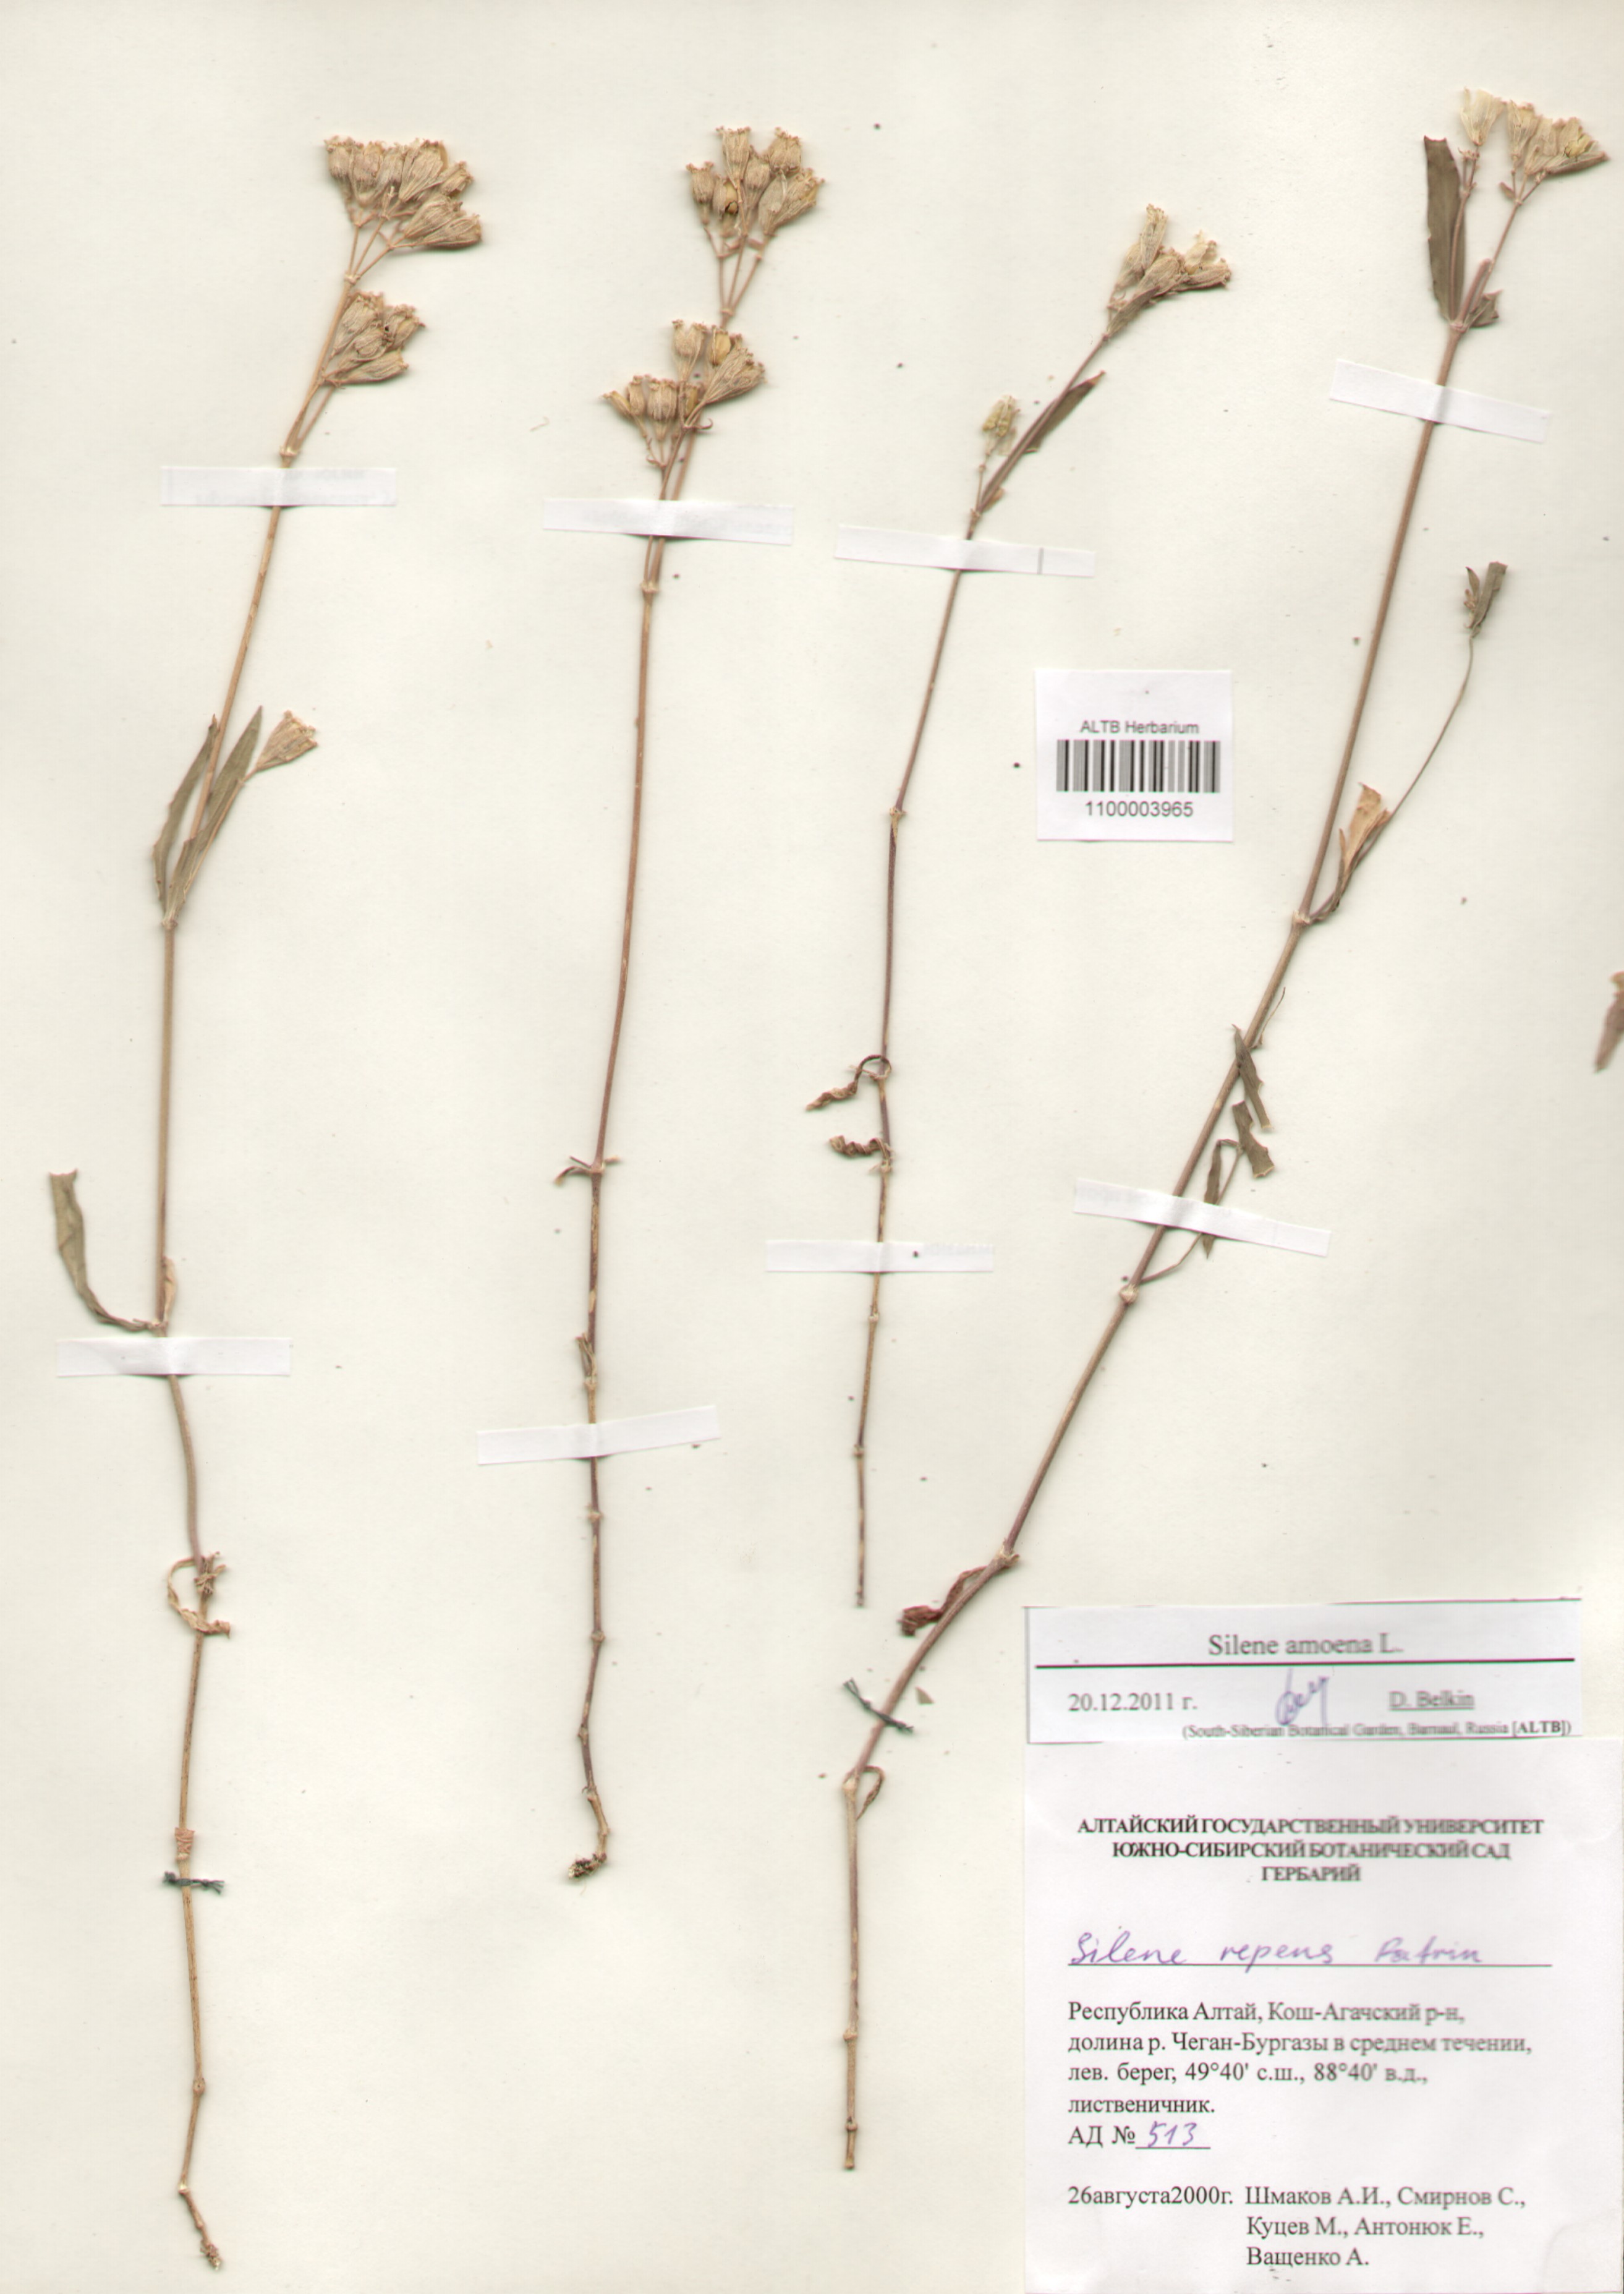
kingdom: Plantae
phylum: Tracheophyta
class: Magnoliopsida
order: Caryophyllales
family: Caryophyllaceae
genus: Silene
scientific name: Silene amoena
